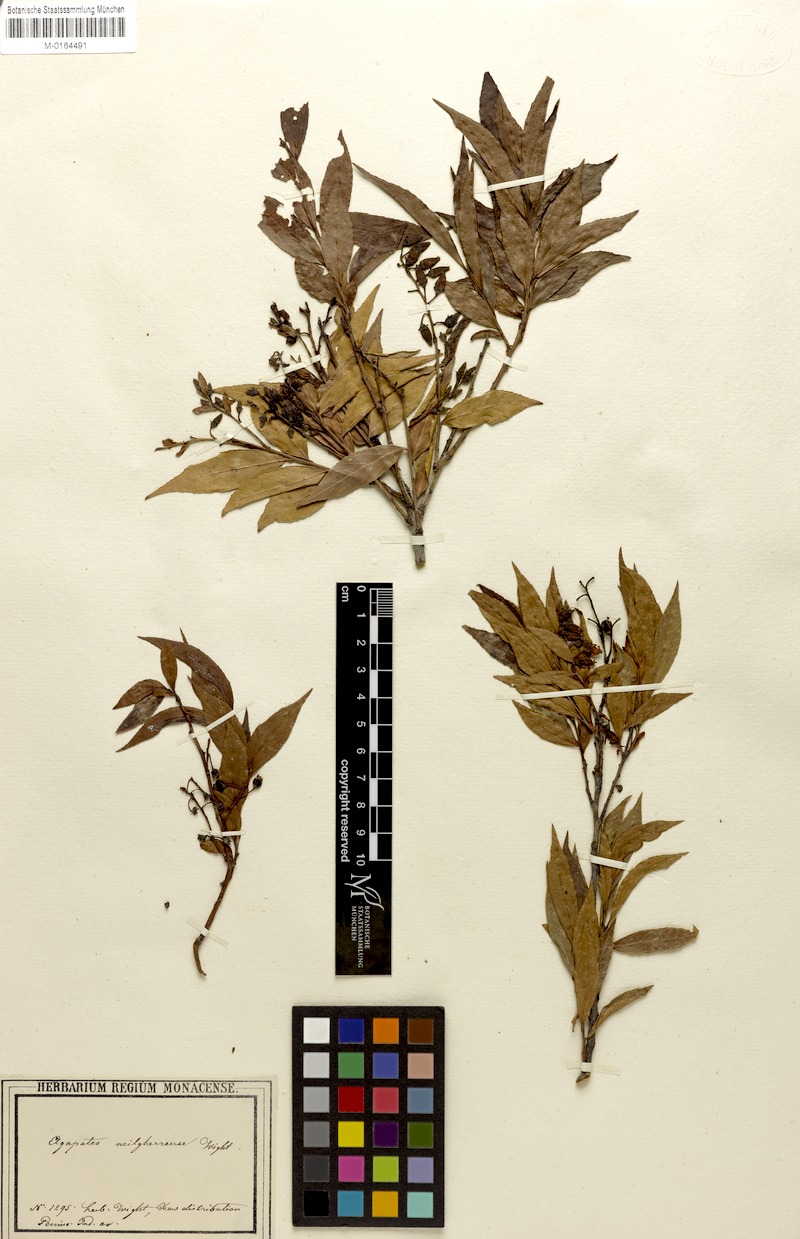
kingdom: Plantae
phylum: Tracheophyta
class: Magnoliopsida
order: Ericales
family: Ericaceae
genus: Vaccinium
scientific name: Vaccinium neilgherrense
